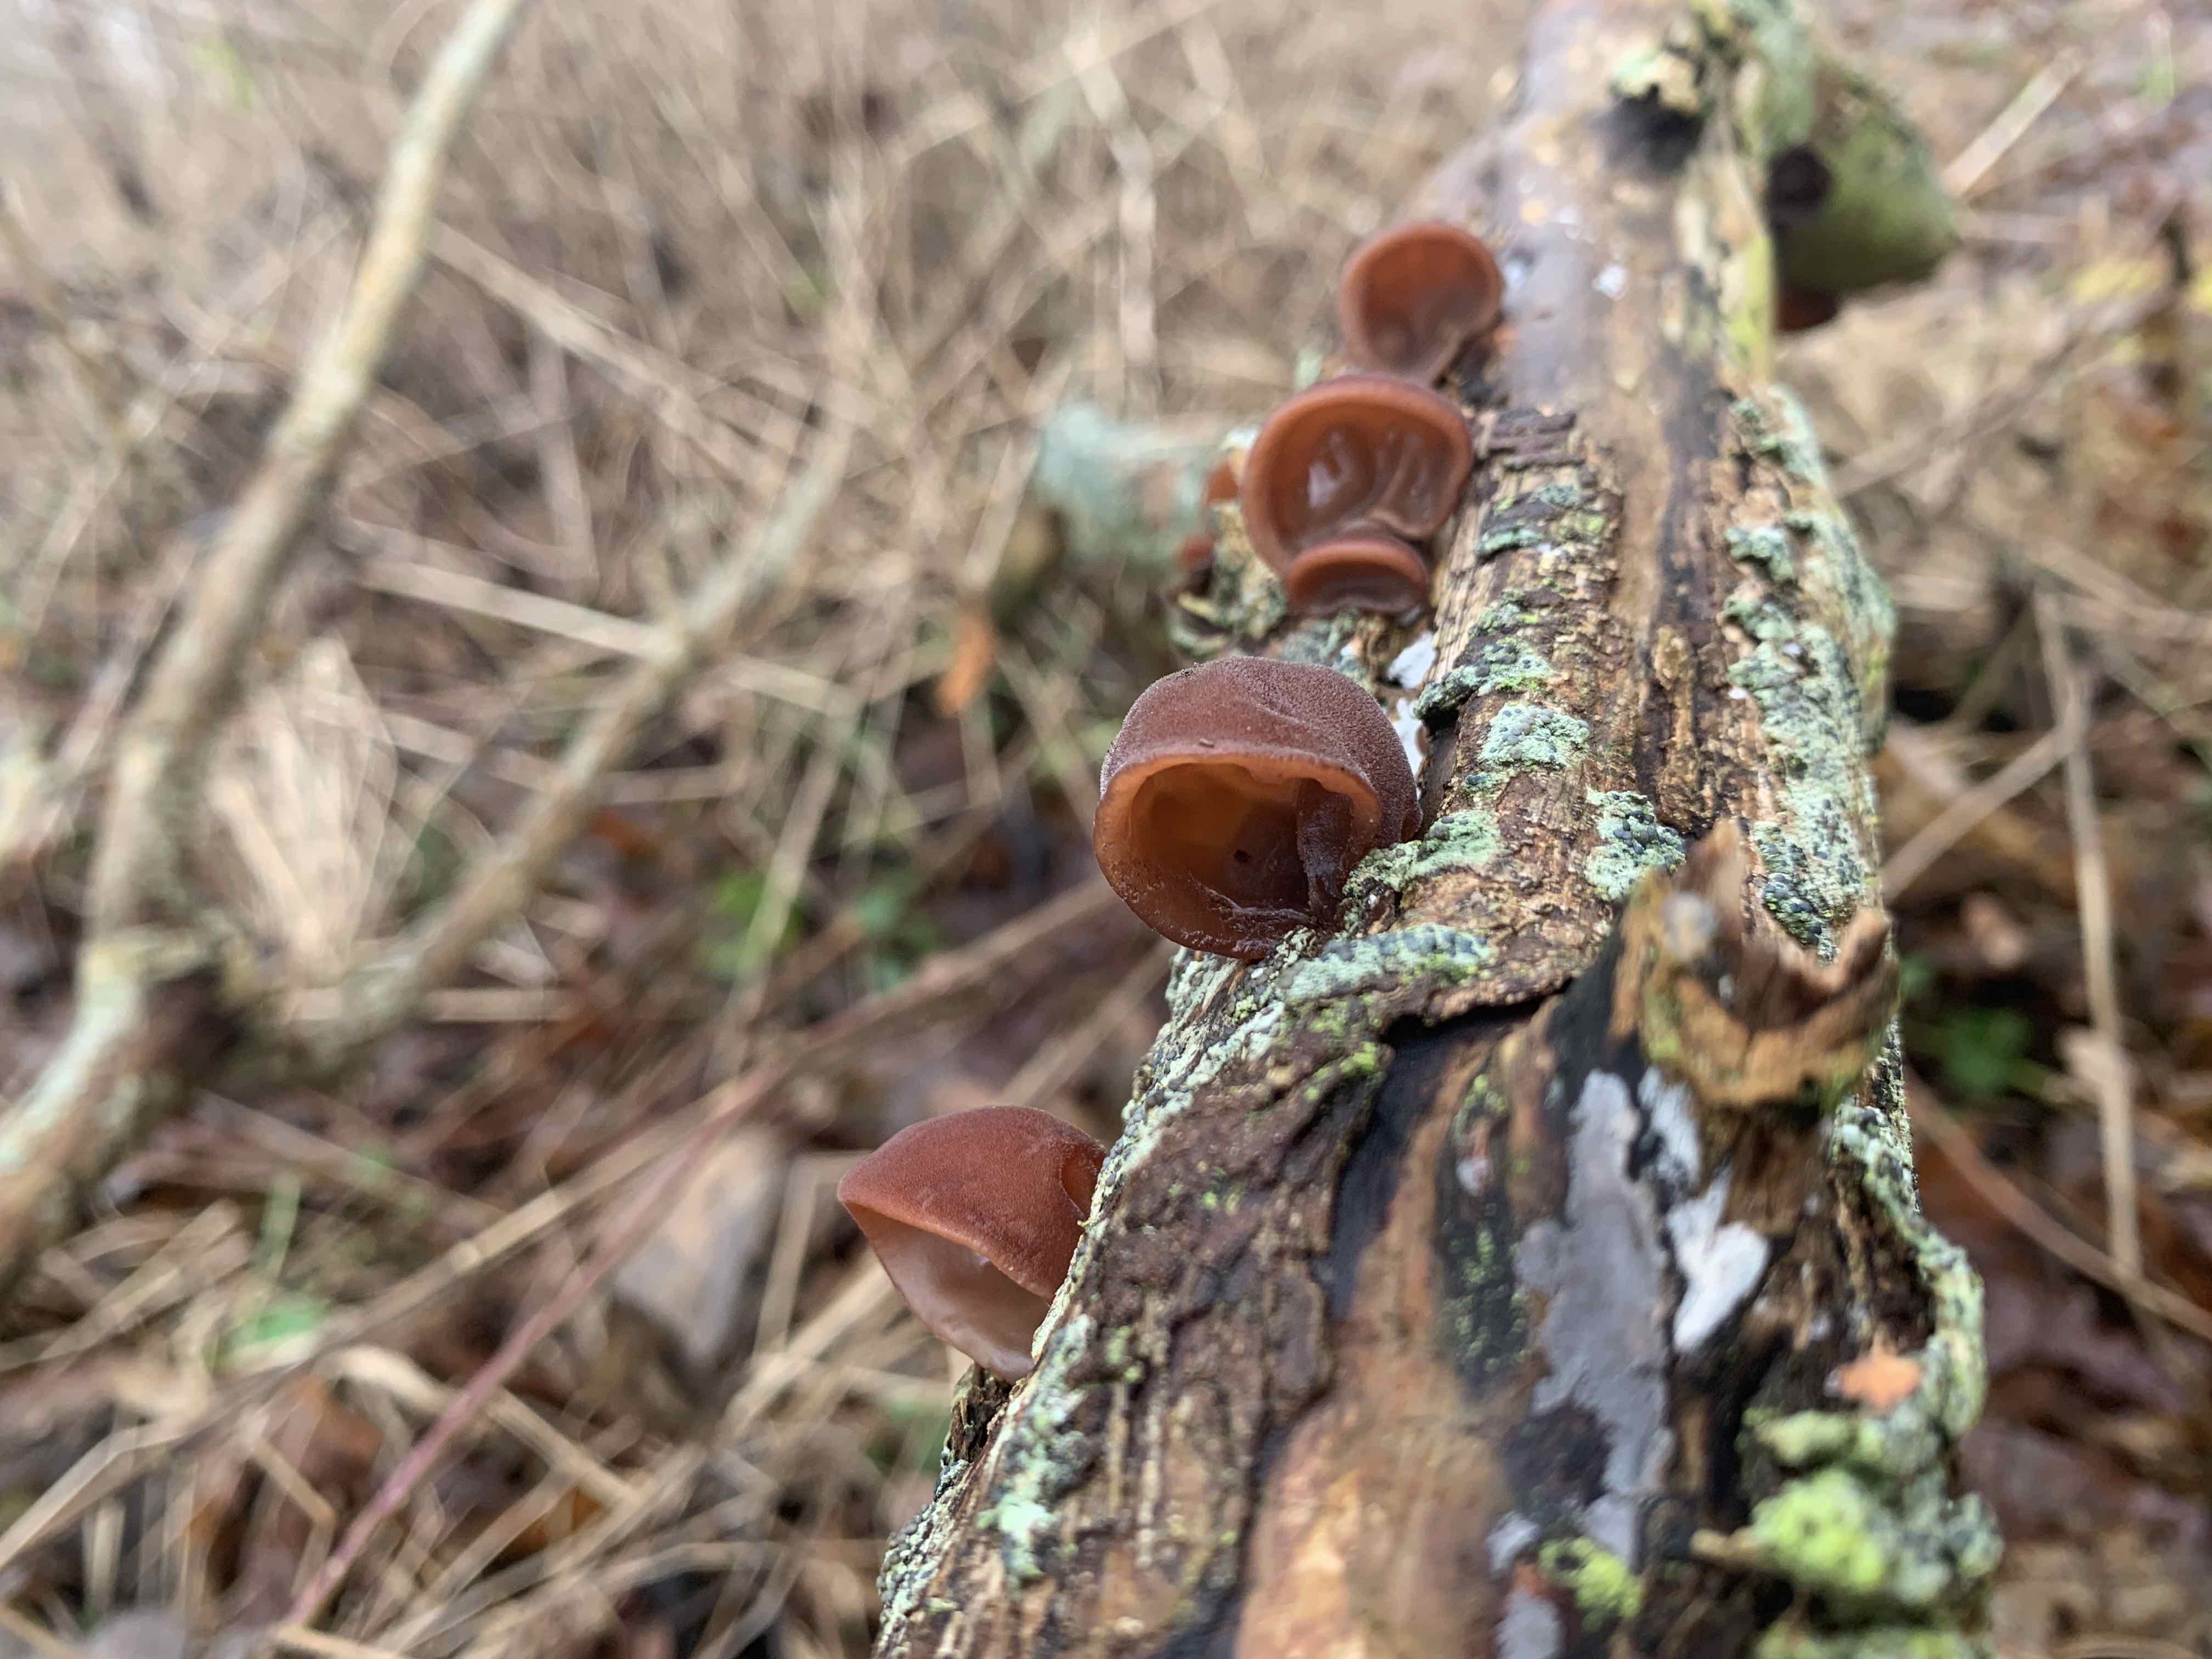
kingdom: Fungi
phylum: Basidiomycota
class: Agaricomycetes
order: Auriculariales
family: Auriculariaceae
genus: Auricularia
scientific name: Auricularia auricula-judae
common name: almindelig judasøre
